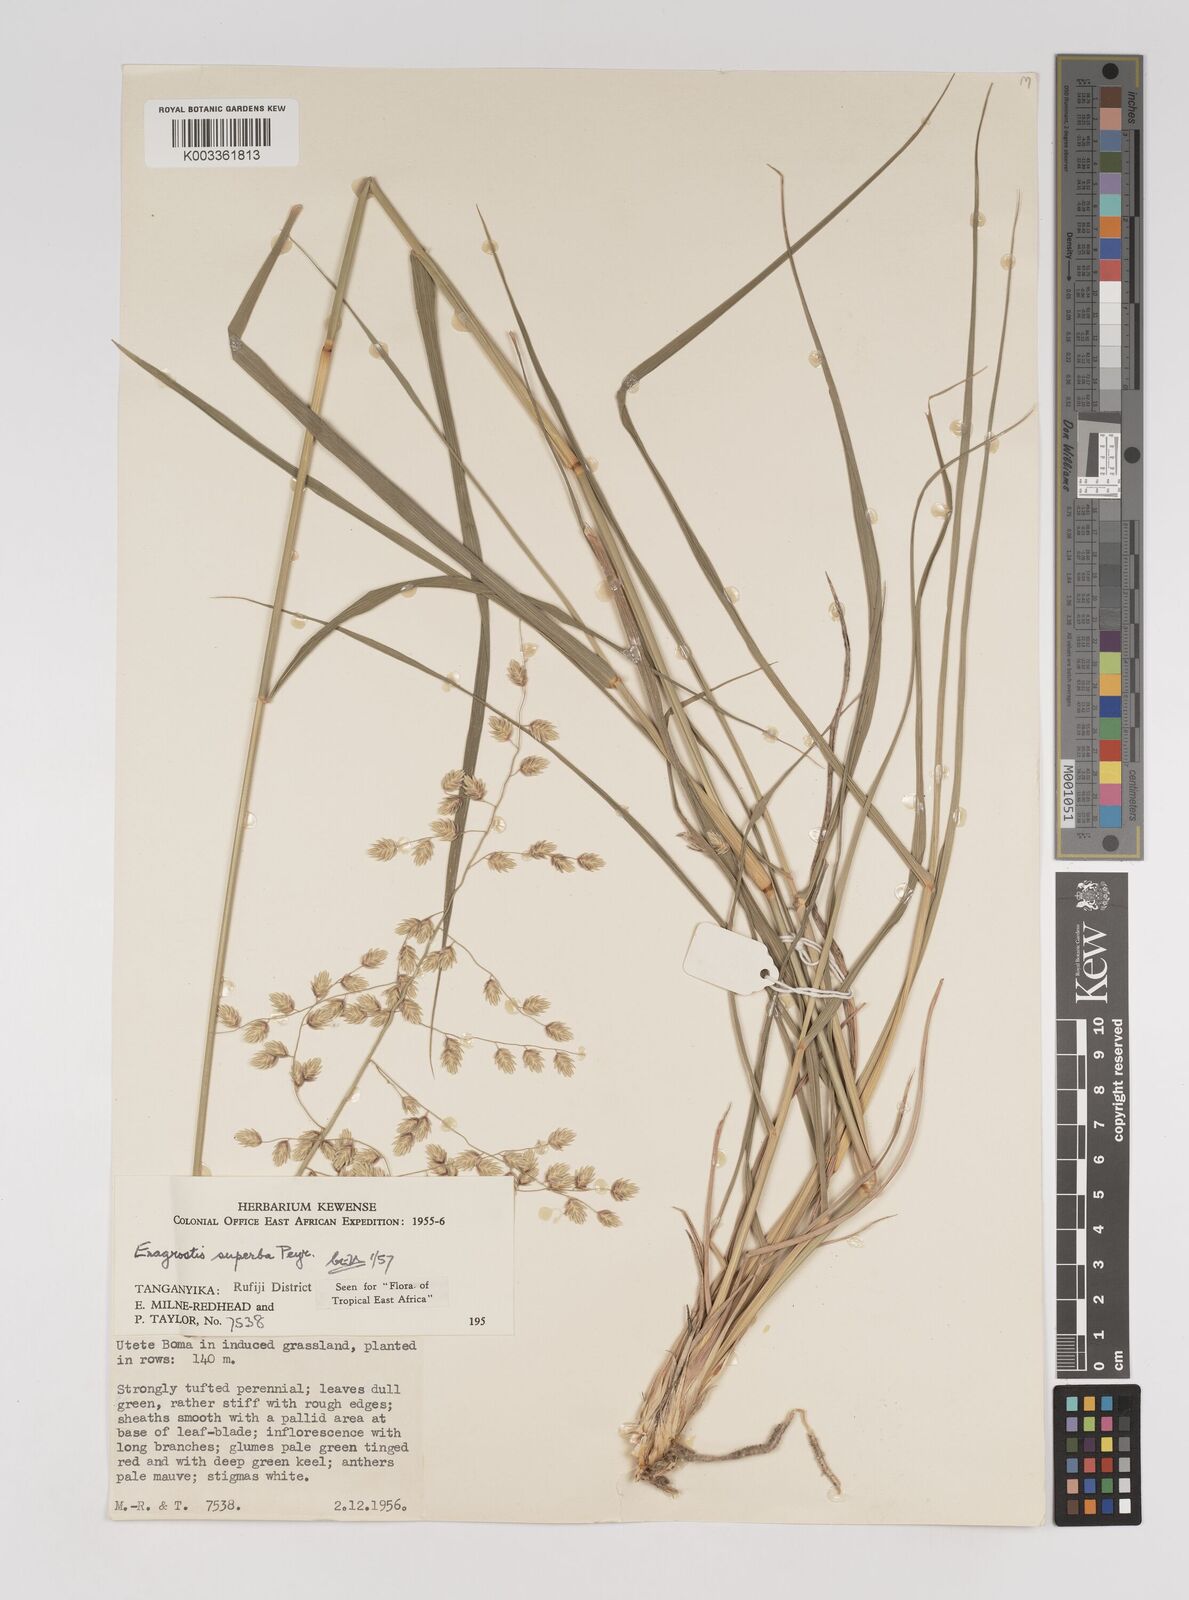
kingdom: Plantae
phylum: Tracheophyta
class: Liliopsida
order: Poales
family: Poaceae
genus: Eragrostis
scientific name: Eragrostis superba
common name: Wilman lovegrass
